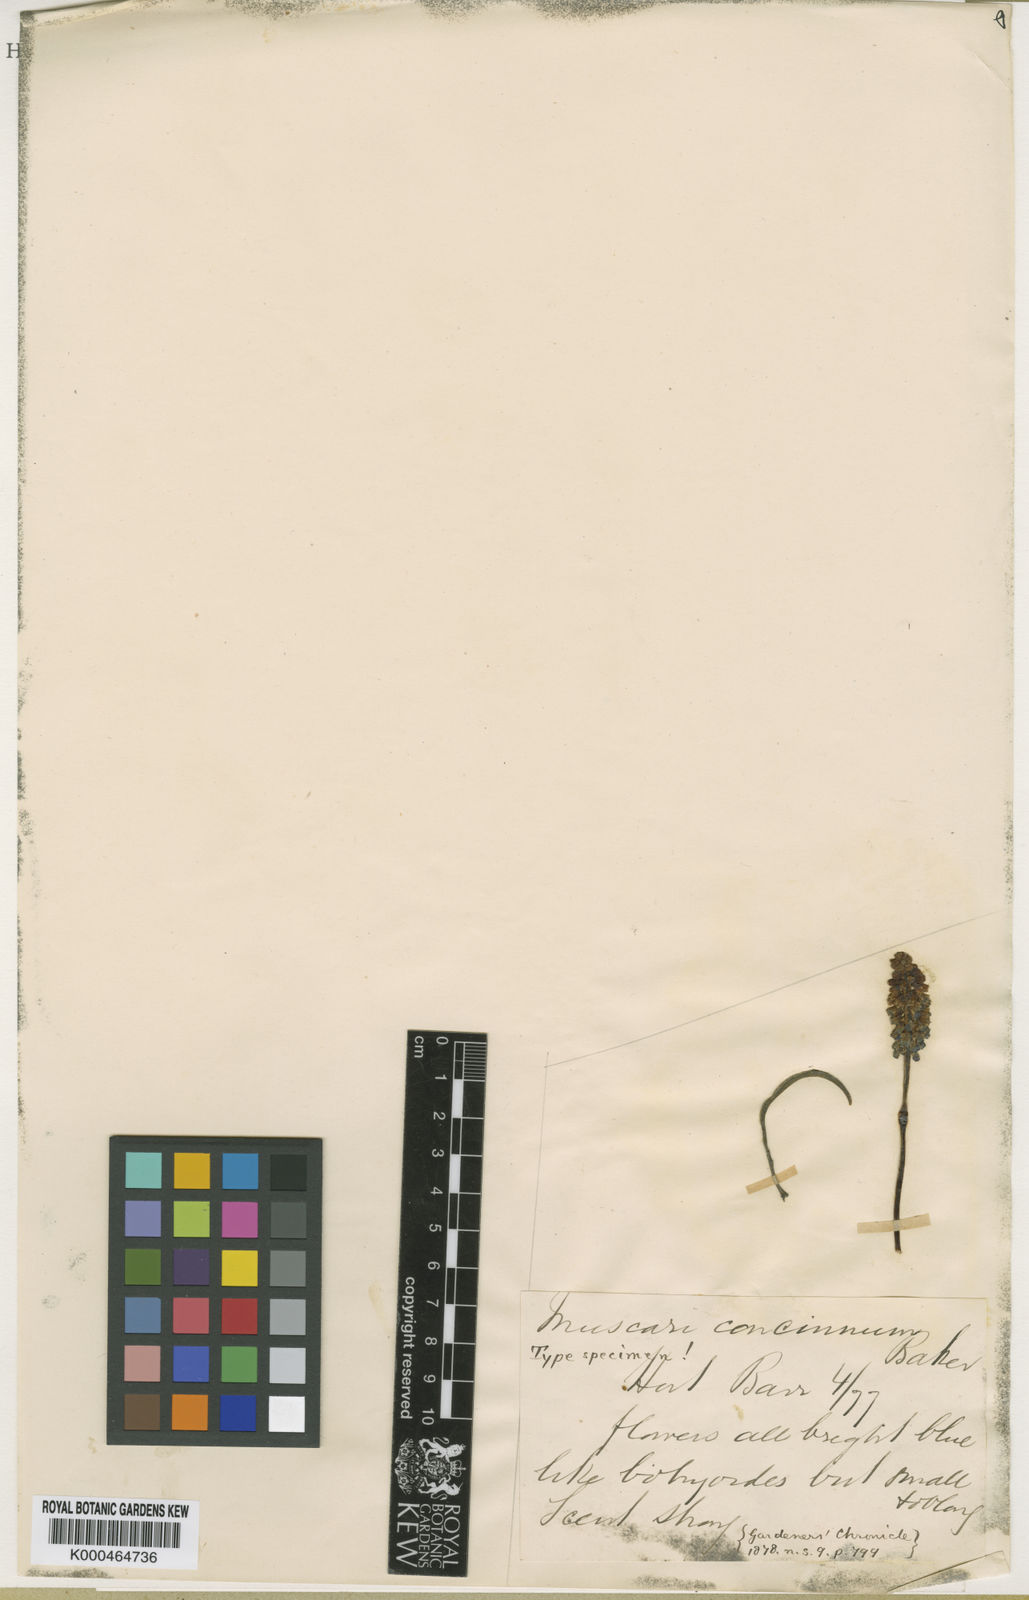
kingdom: Plantae
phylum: Tracheophyta
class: Liliopsida
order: Asparagales
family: Asparagaceae
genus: Muscari
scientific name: Muscari armeniacum
